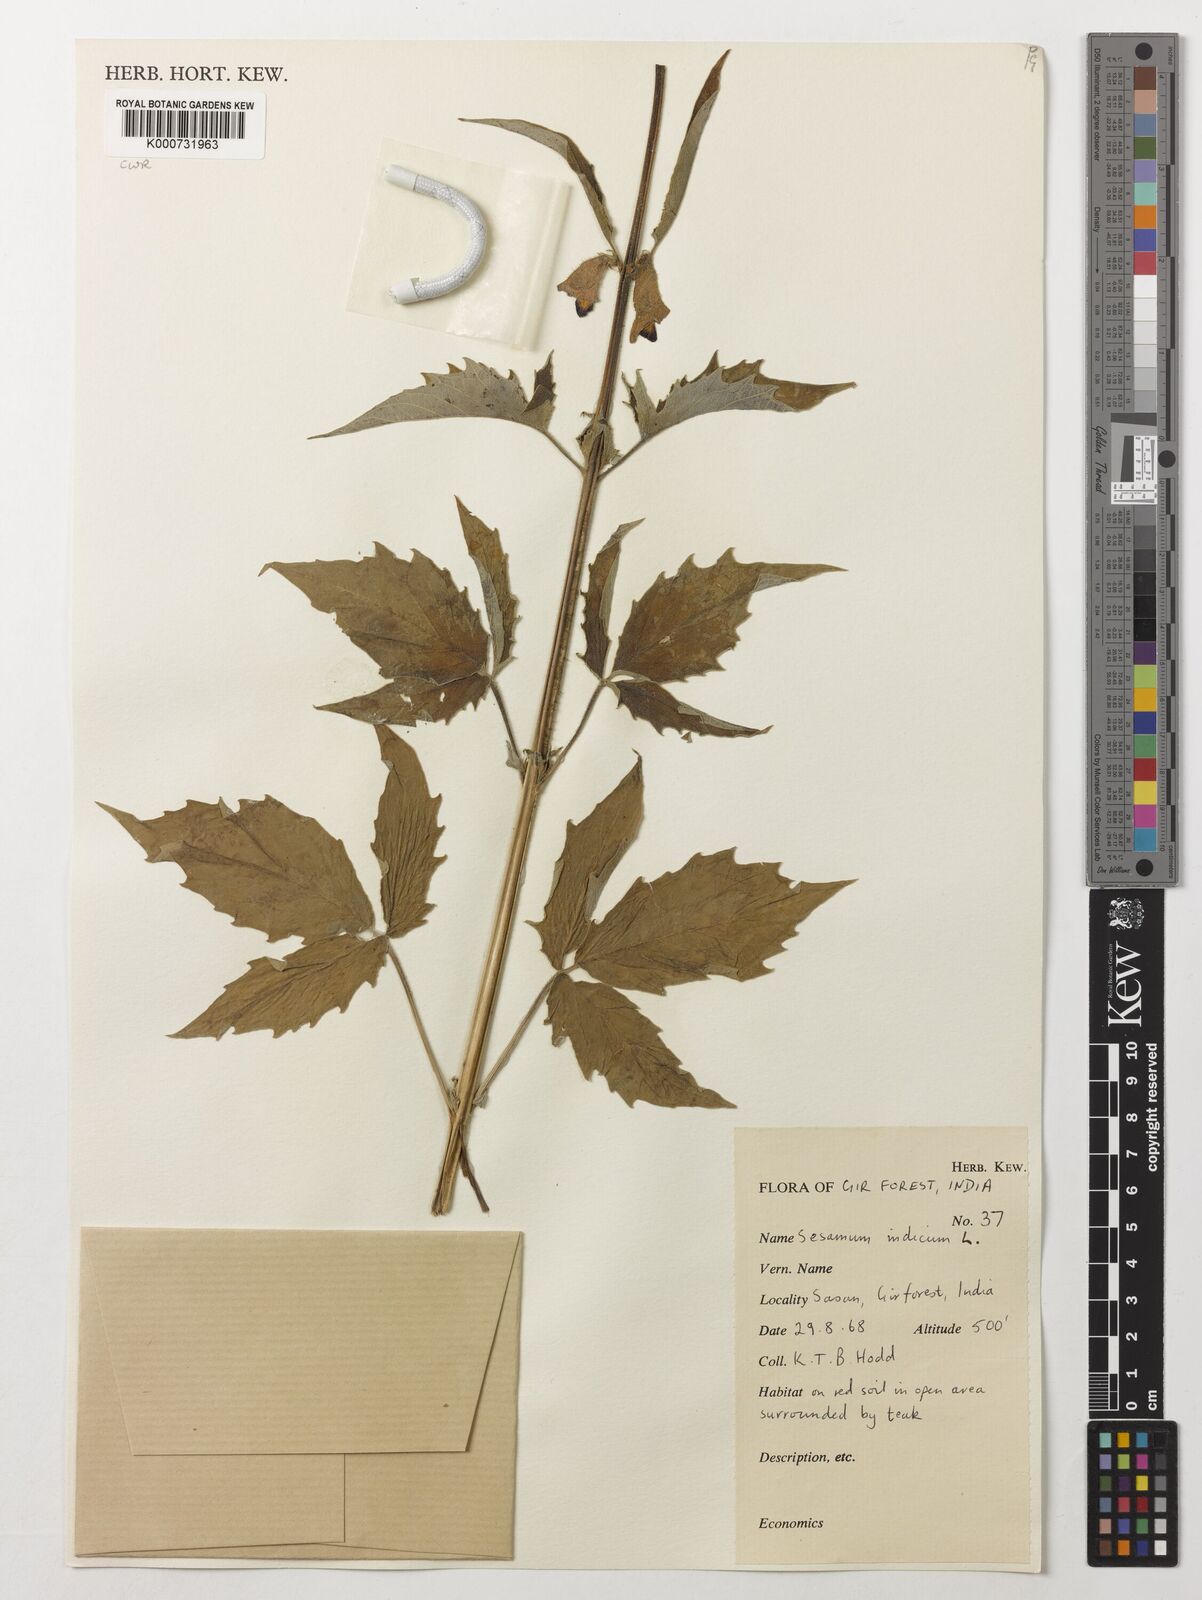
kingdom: Plantae
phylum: Tracheophyta
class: Magnoliopsida
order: Lamiales
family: Pedaliaceae
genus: Sesamum
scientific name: Sesamum indicum
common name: Sesame
